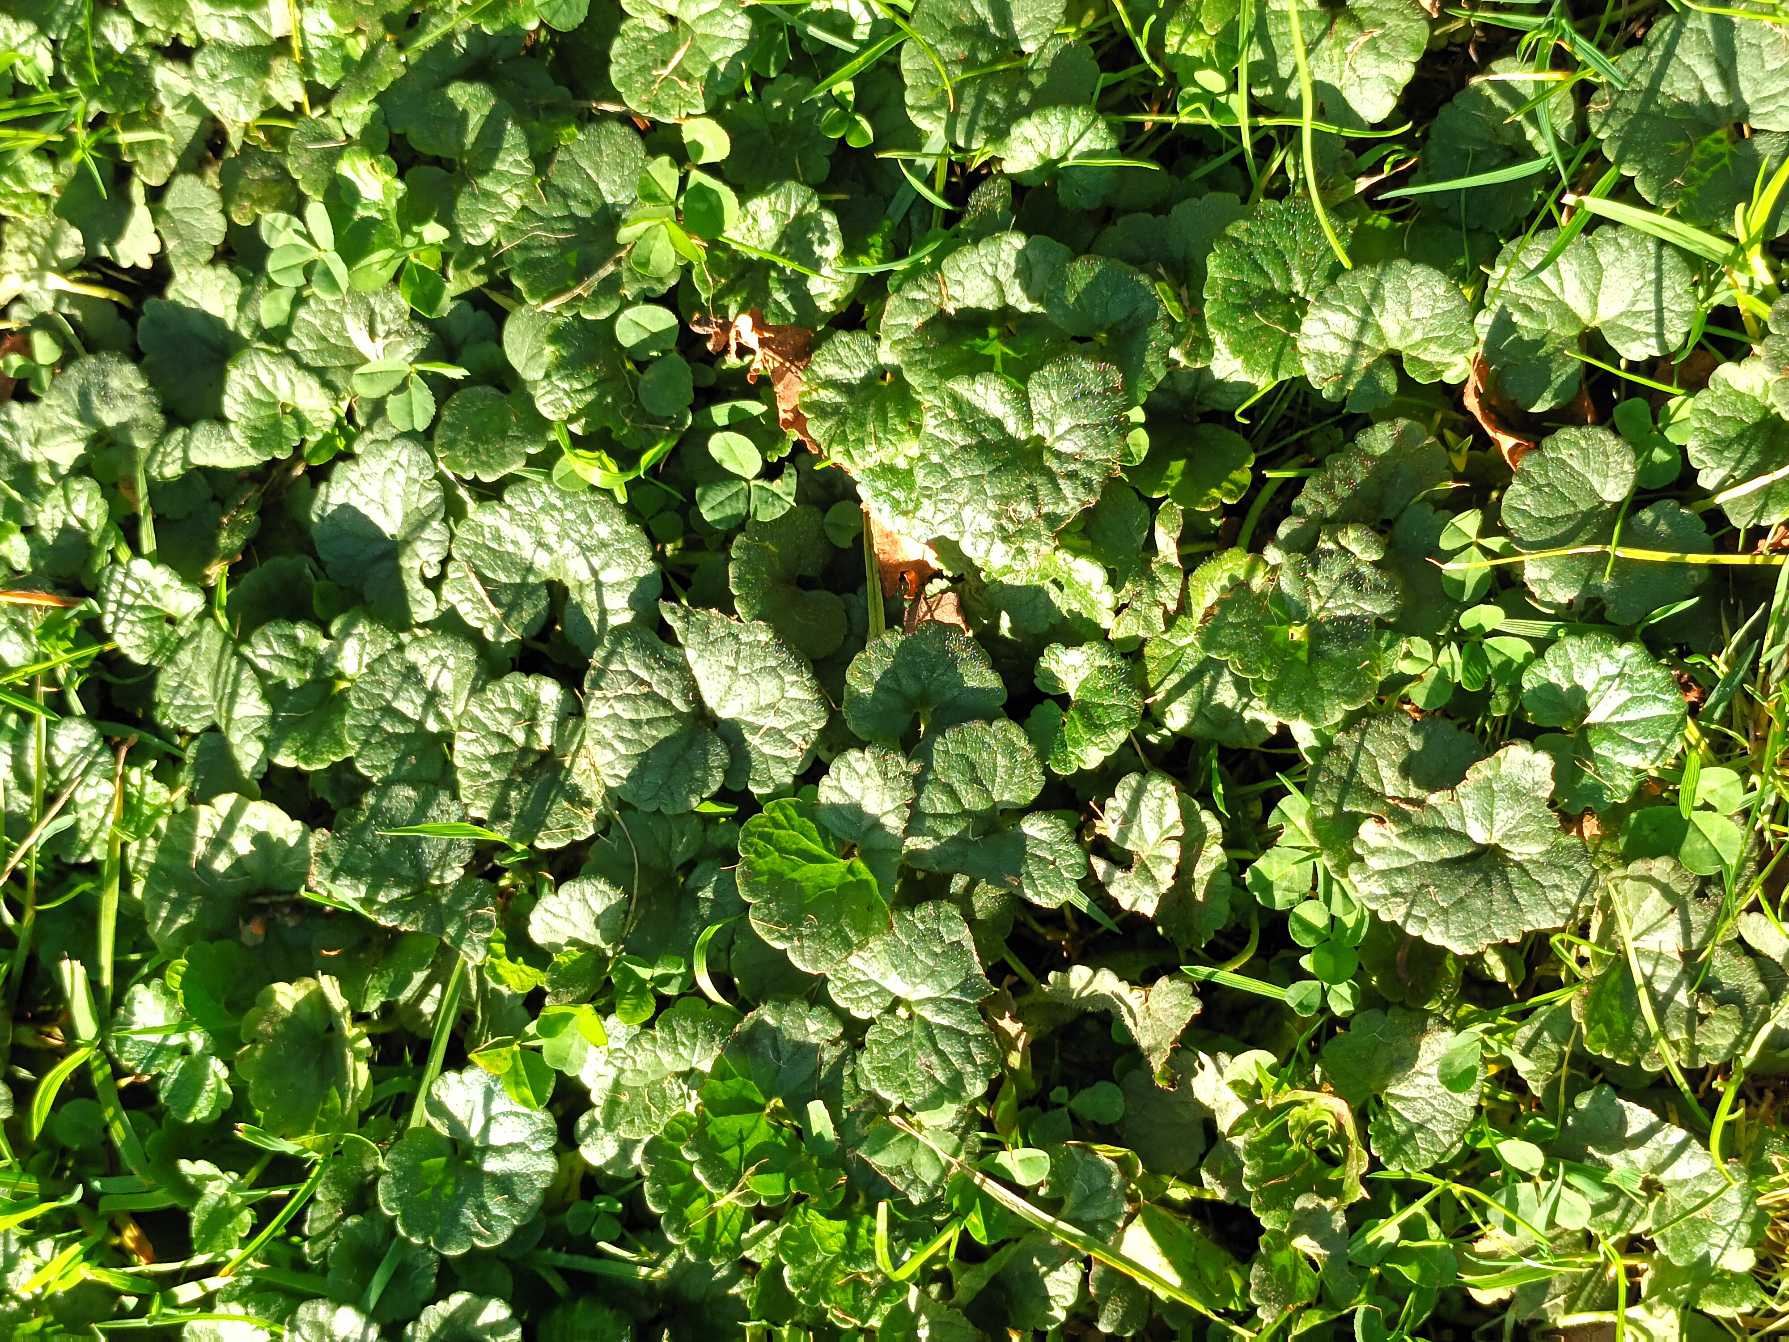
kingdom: Plantae
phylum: Tracheophyta
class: Magnoliopsida
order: Lamiales
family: Lamiaceae
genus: Glechoma
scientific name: Glechoma hederacea
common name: Korsknap
